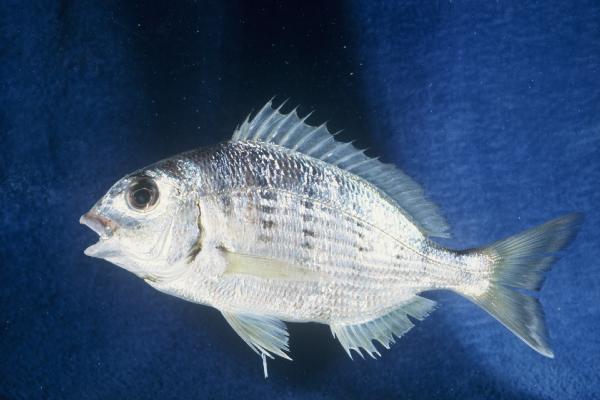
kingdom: Animalia
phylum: Chordata
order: Perciformes
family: Sparidae
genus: Rhabdosargus
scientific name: Rhabdosargus globiceps
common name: White stumpnose
